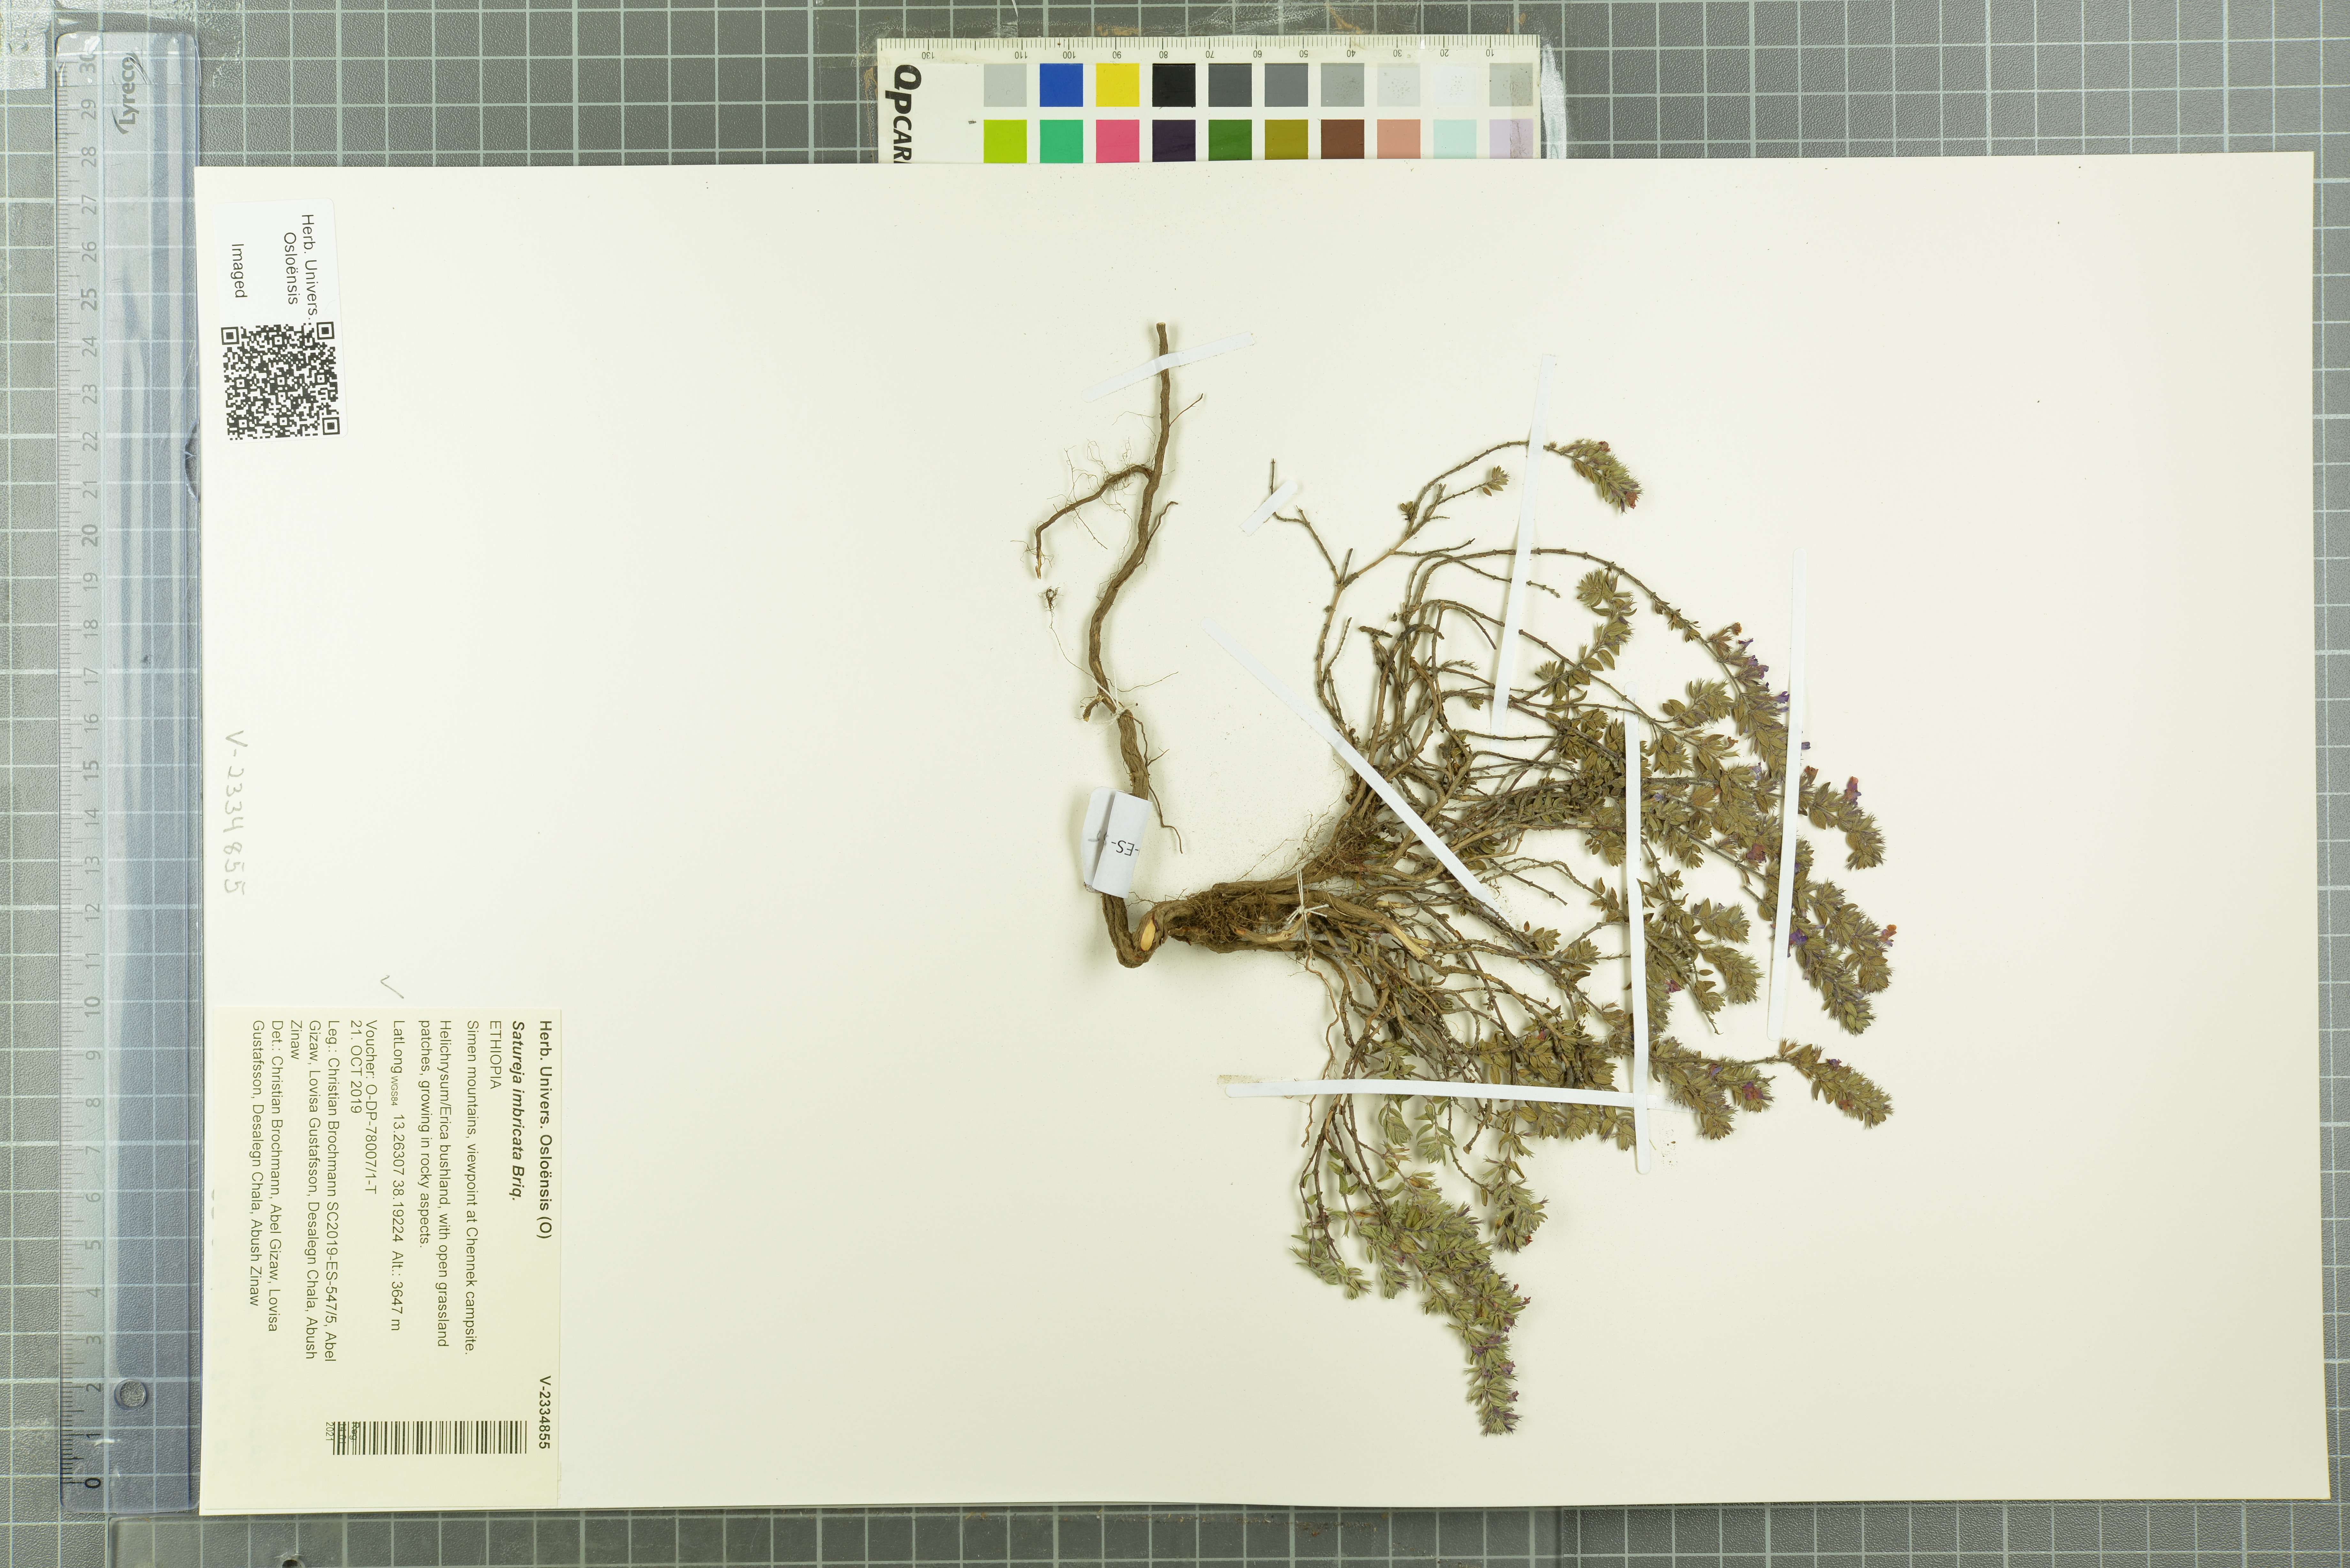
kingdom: Plantae
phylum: Tracheophyta
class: Magnoliopsida
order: Lamiales
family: Lamiaceae
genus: Micromeria
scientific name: Micromeria imbricata
